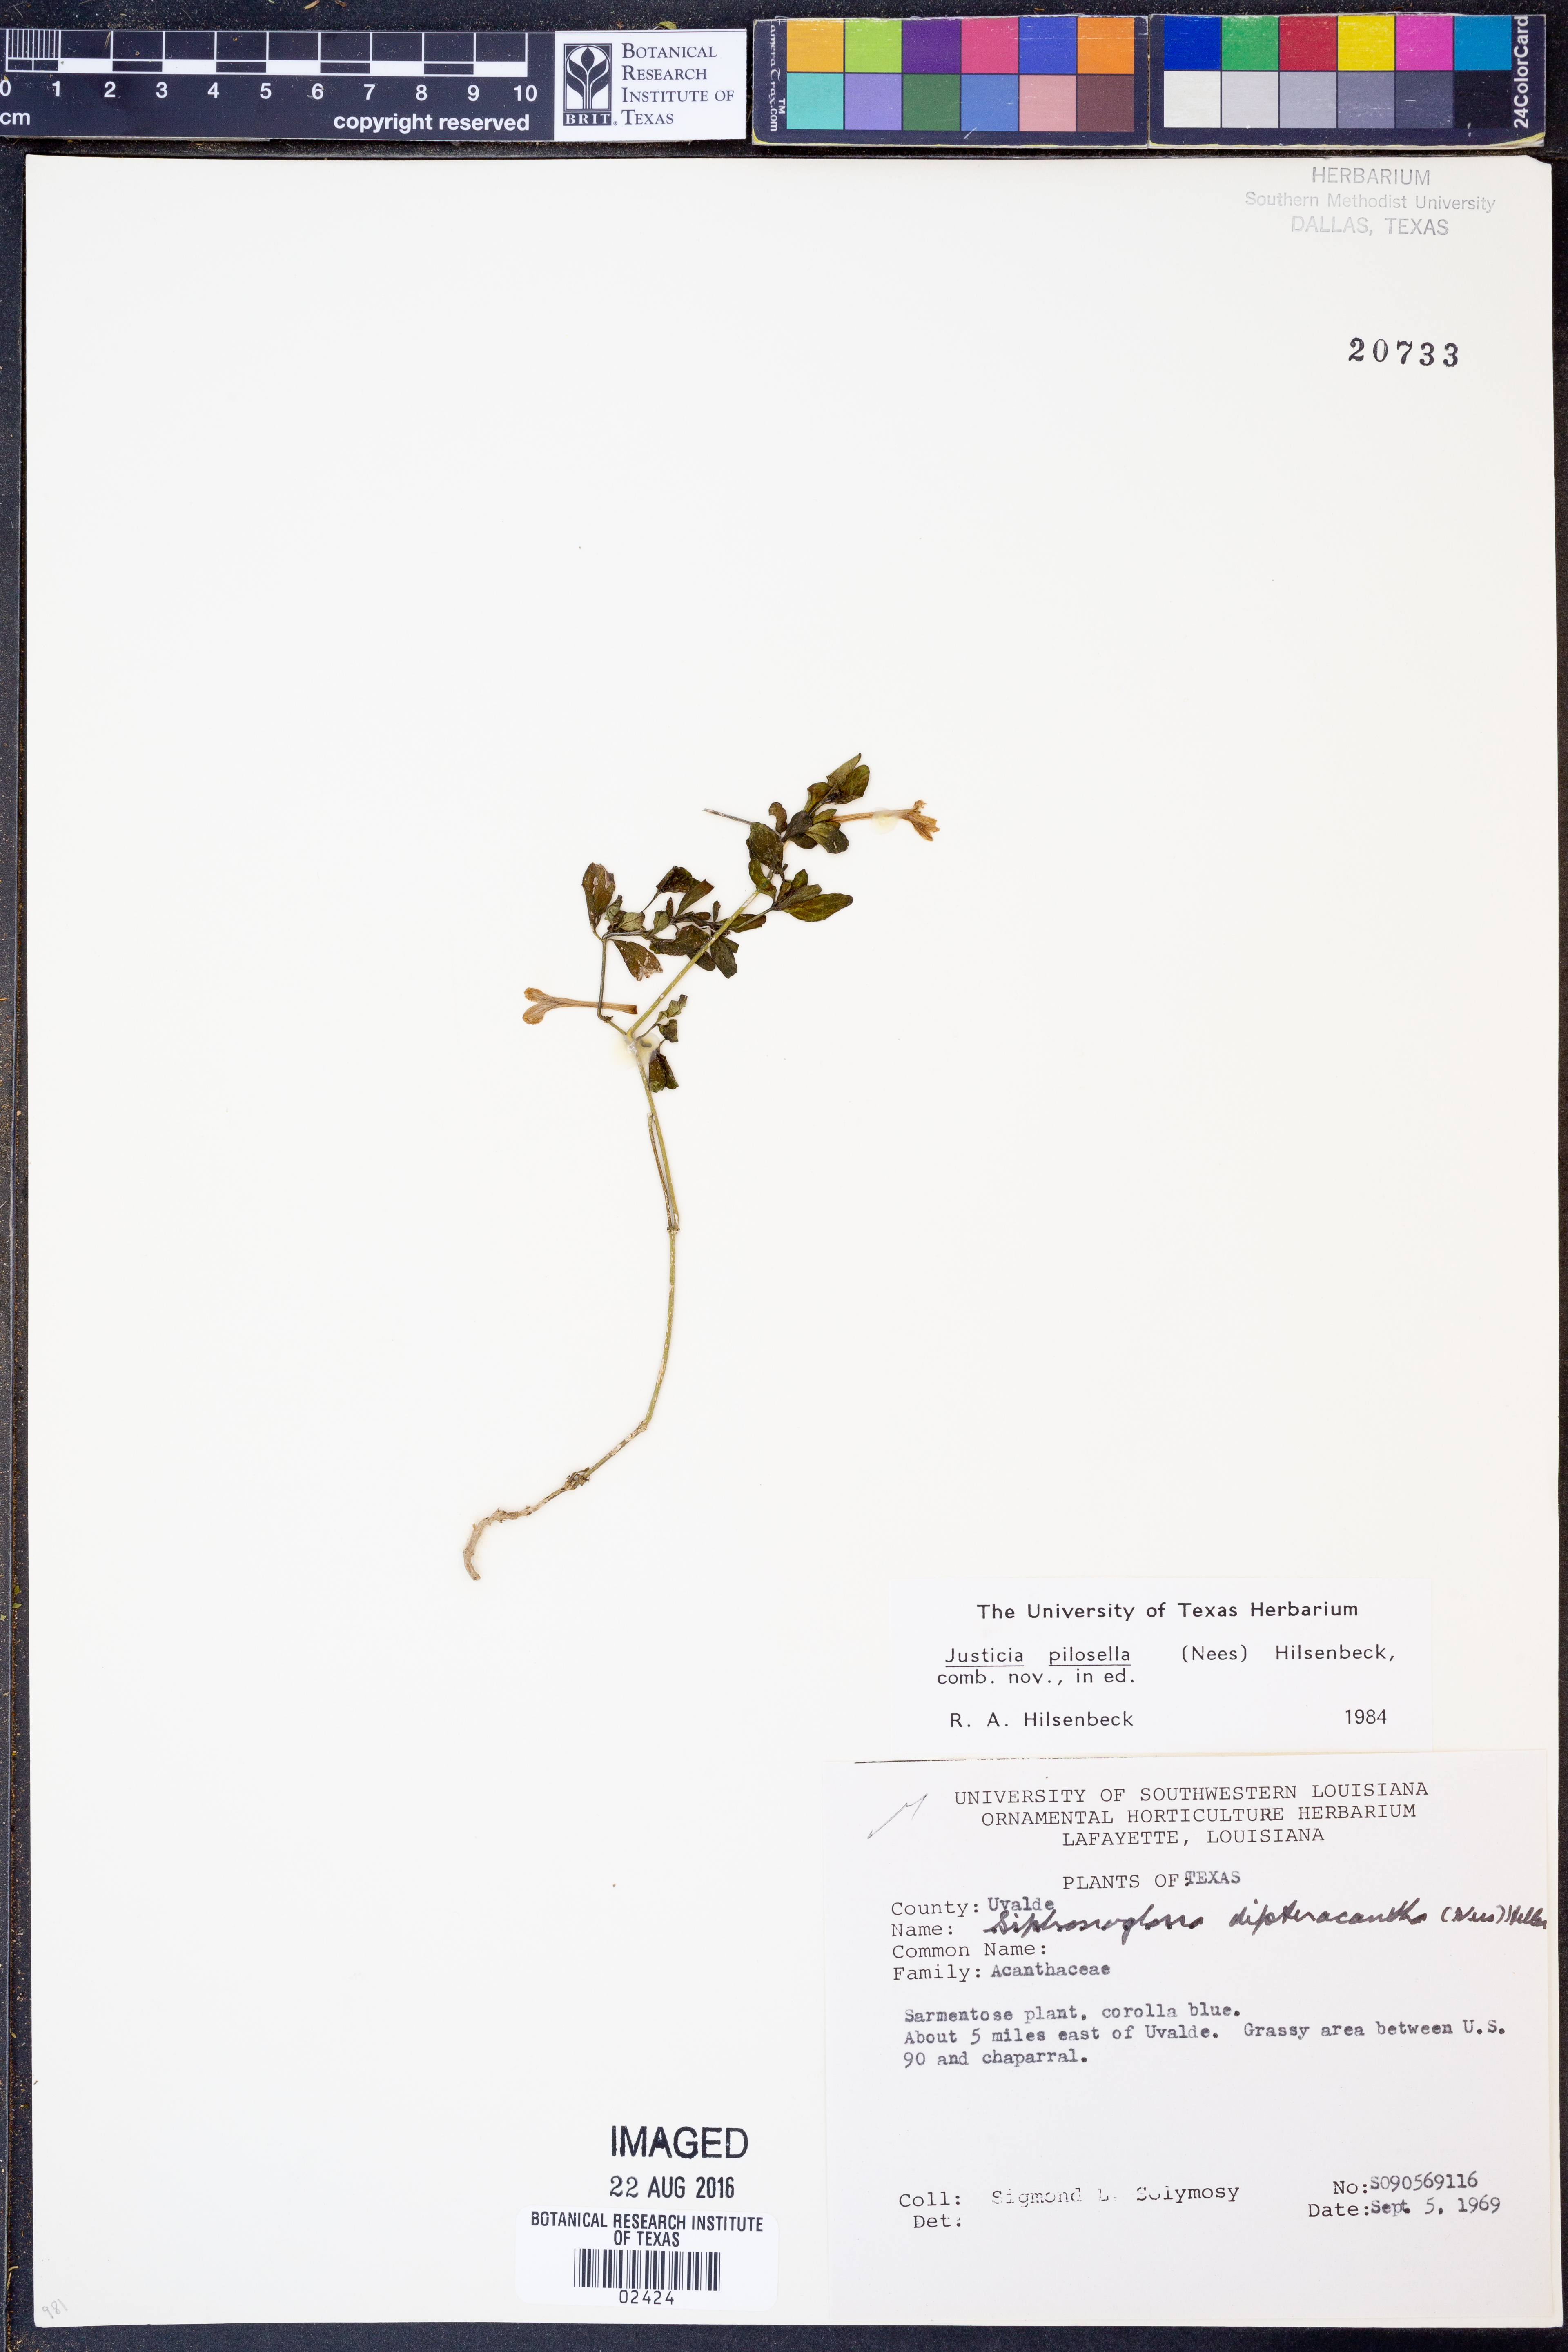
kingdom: Plantae
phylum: Tracheophyta
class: Magnoliopsida
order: Lamiales
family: Acanthaceae
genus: Justicia
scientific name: Justicia pilosella
